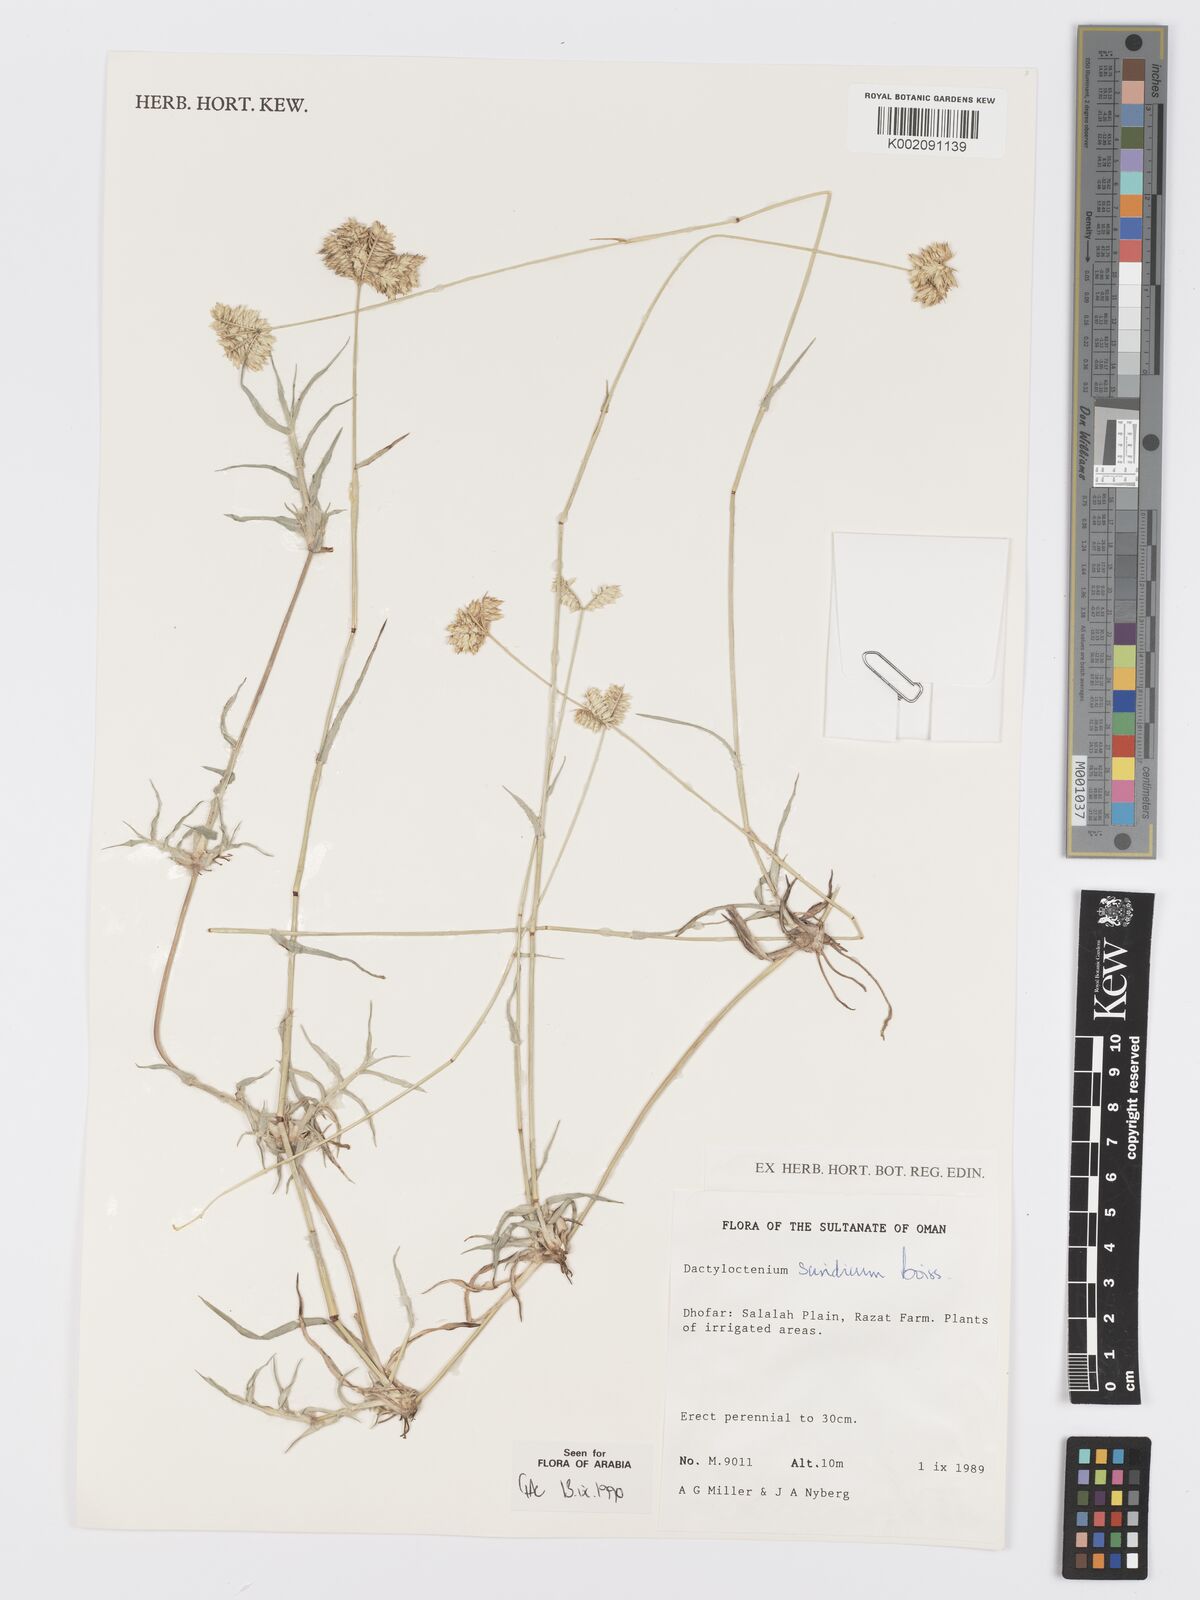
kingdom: Plantae
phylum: Tracheophyta
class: Liliopsida
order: Poales
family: Poaceae
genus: Dactyloctenium
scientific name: Dactyloctenium scindicum
